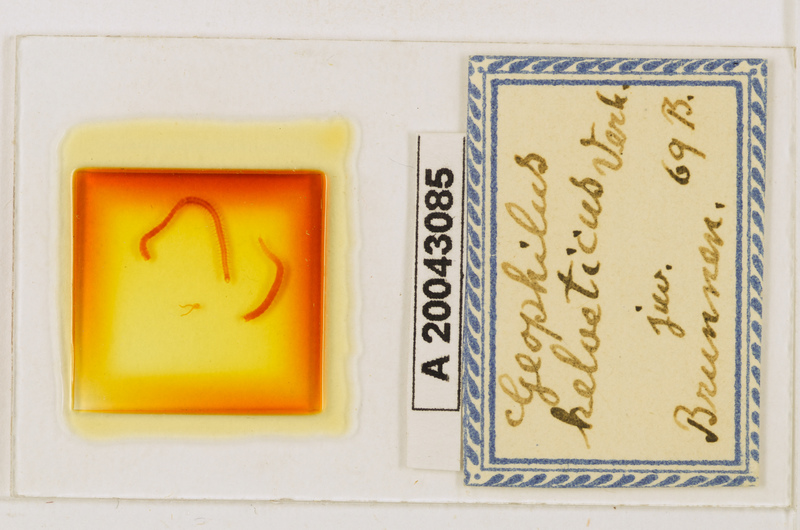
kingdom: Animalia
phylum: Arthropoda
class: Chilopoda
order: Geophilomorpha
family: Geophilidae
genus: Geophilus
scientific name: Geophilus electricus
